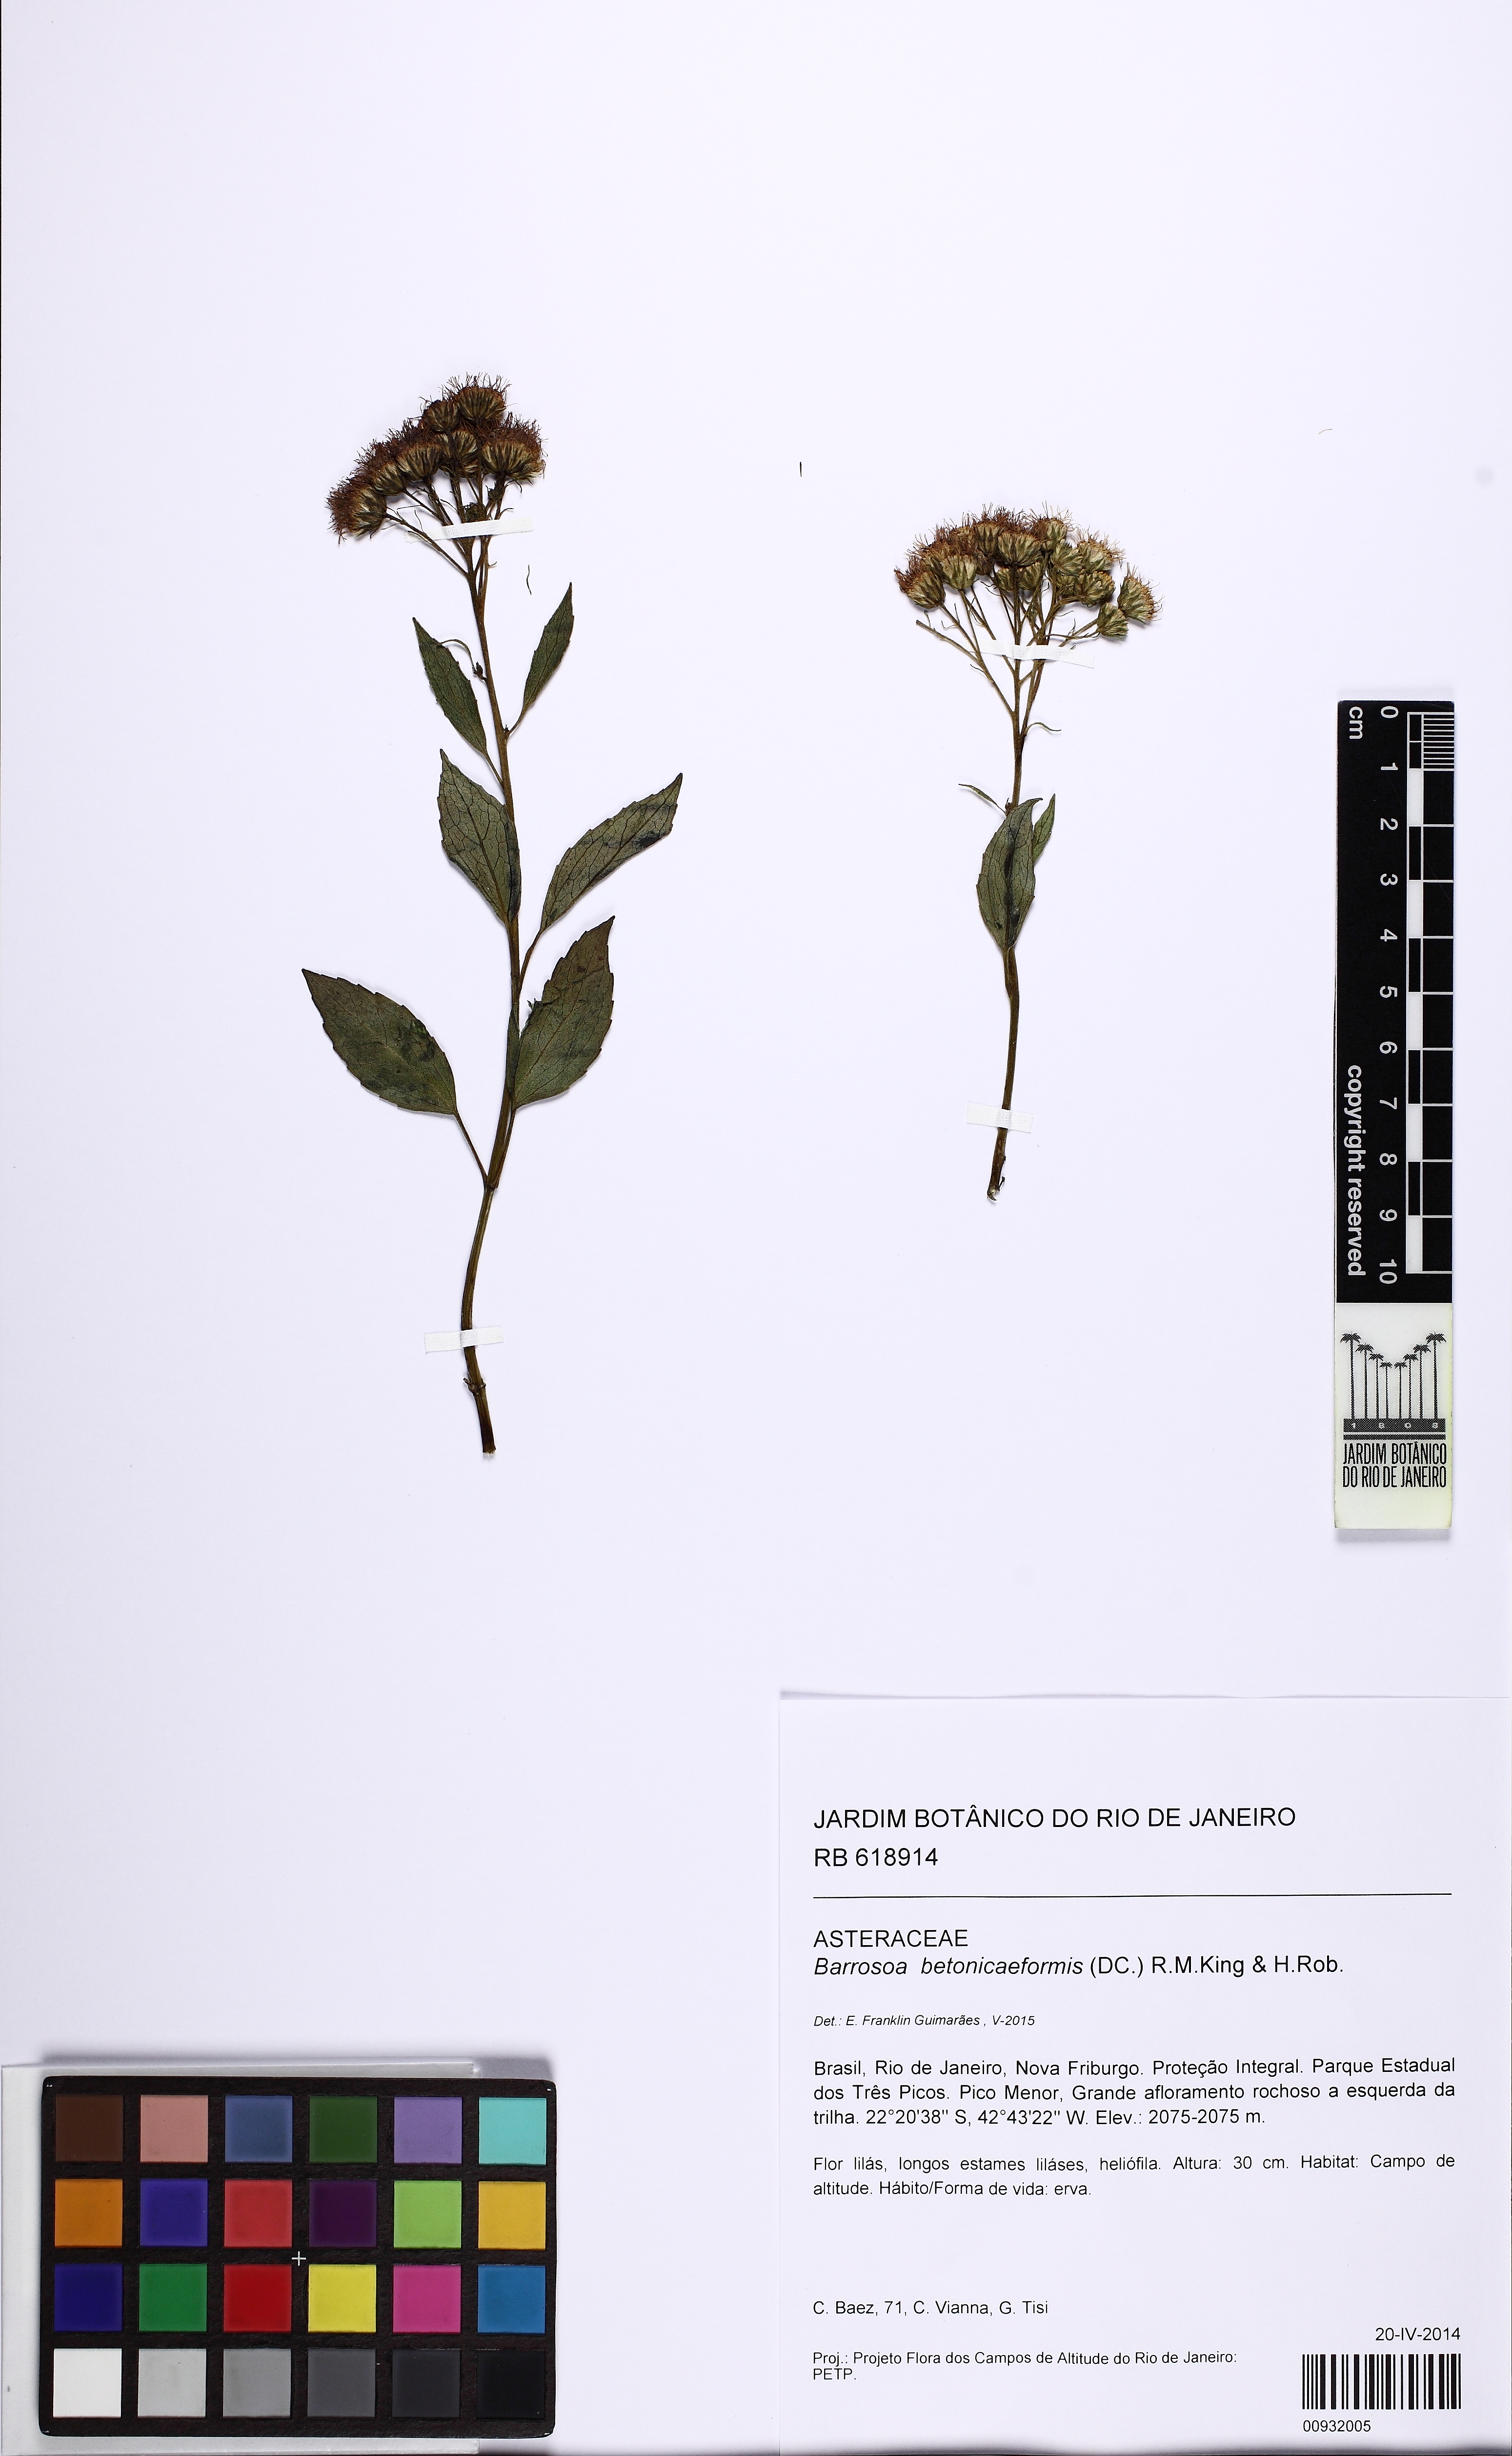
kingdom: Plantae
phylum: Tracheophyta
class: Magnoliopsida
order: Asterales
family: Asteraceae
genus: Barrosoa
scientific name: Barrosoa betoniciformis
